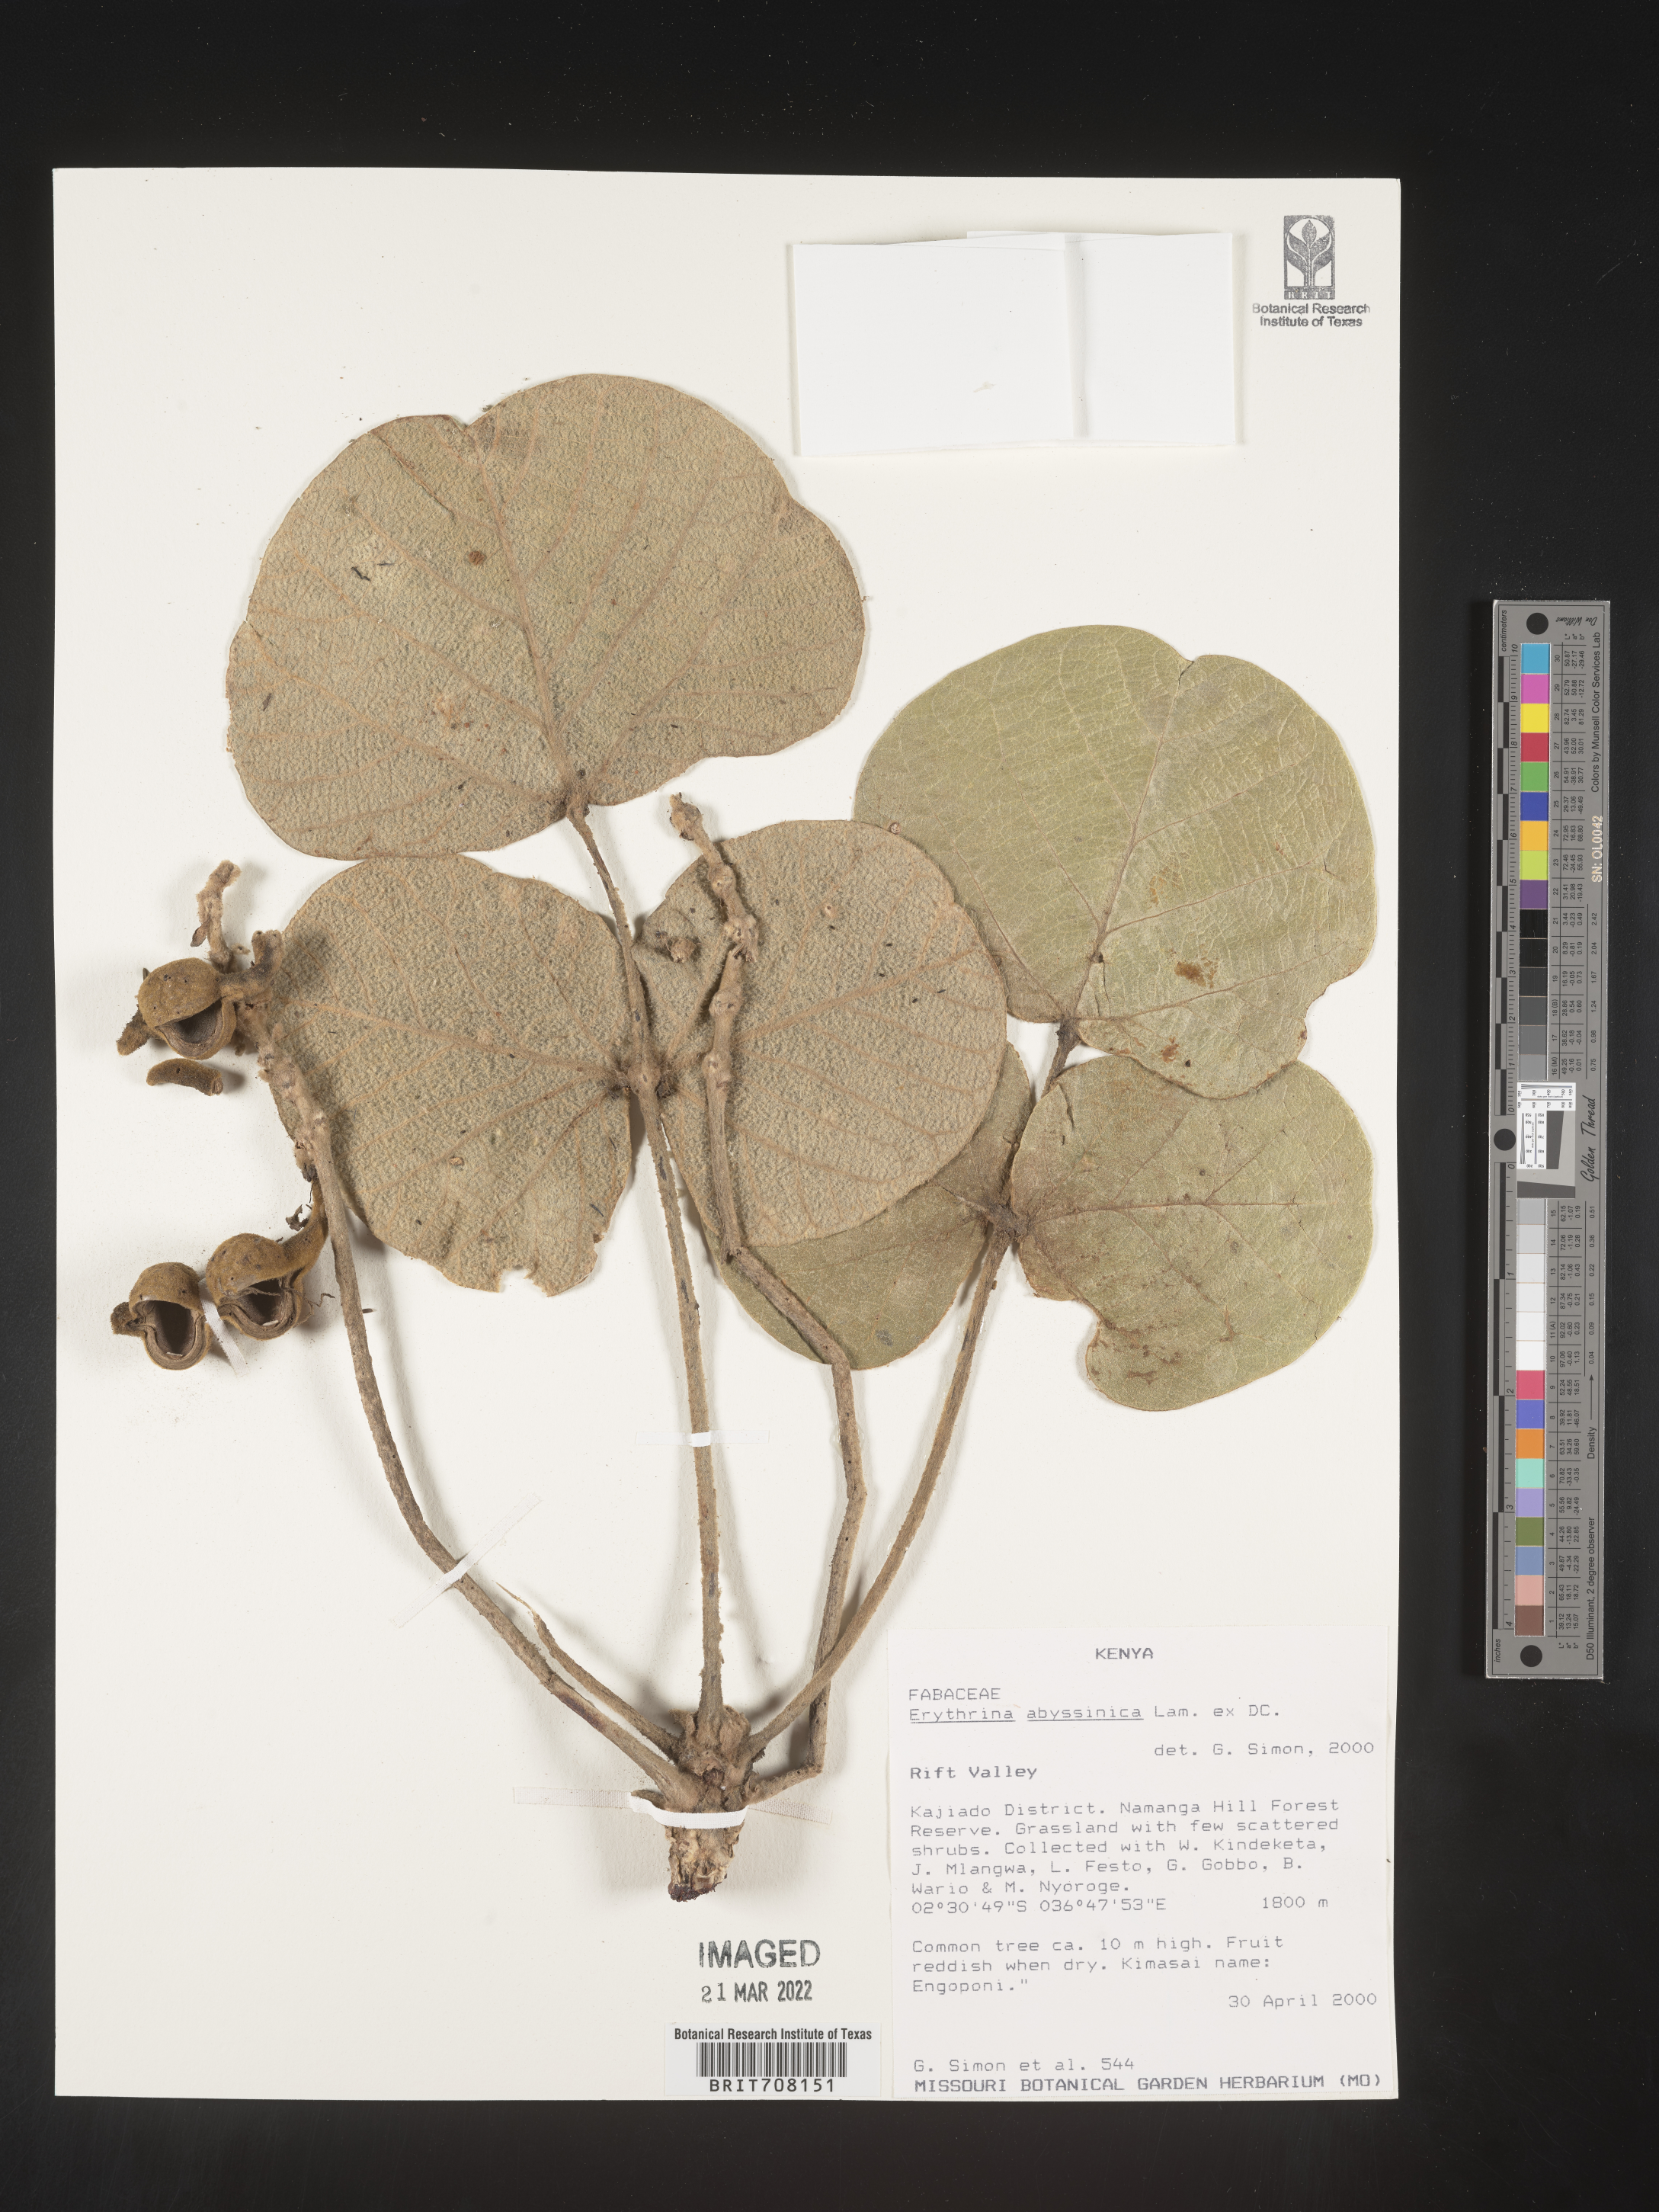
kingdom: Plantae
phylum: Tracheophyta
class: Magnoliopsida
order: Fabales
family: Fabaceae
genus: Erythrina
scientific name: Erythrina
